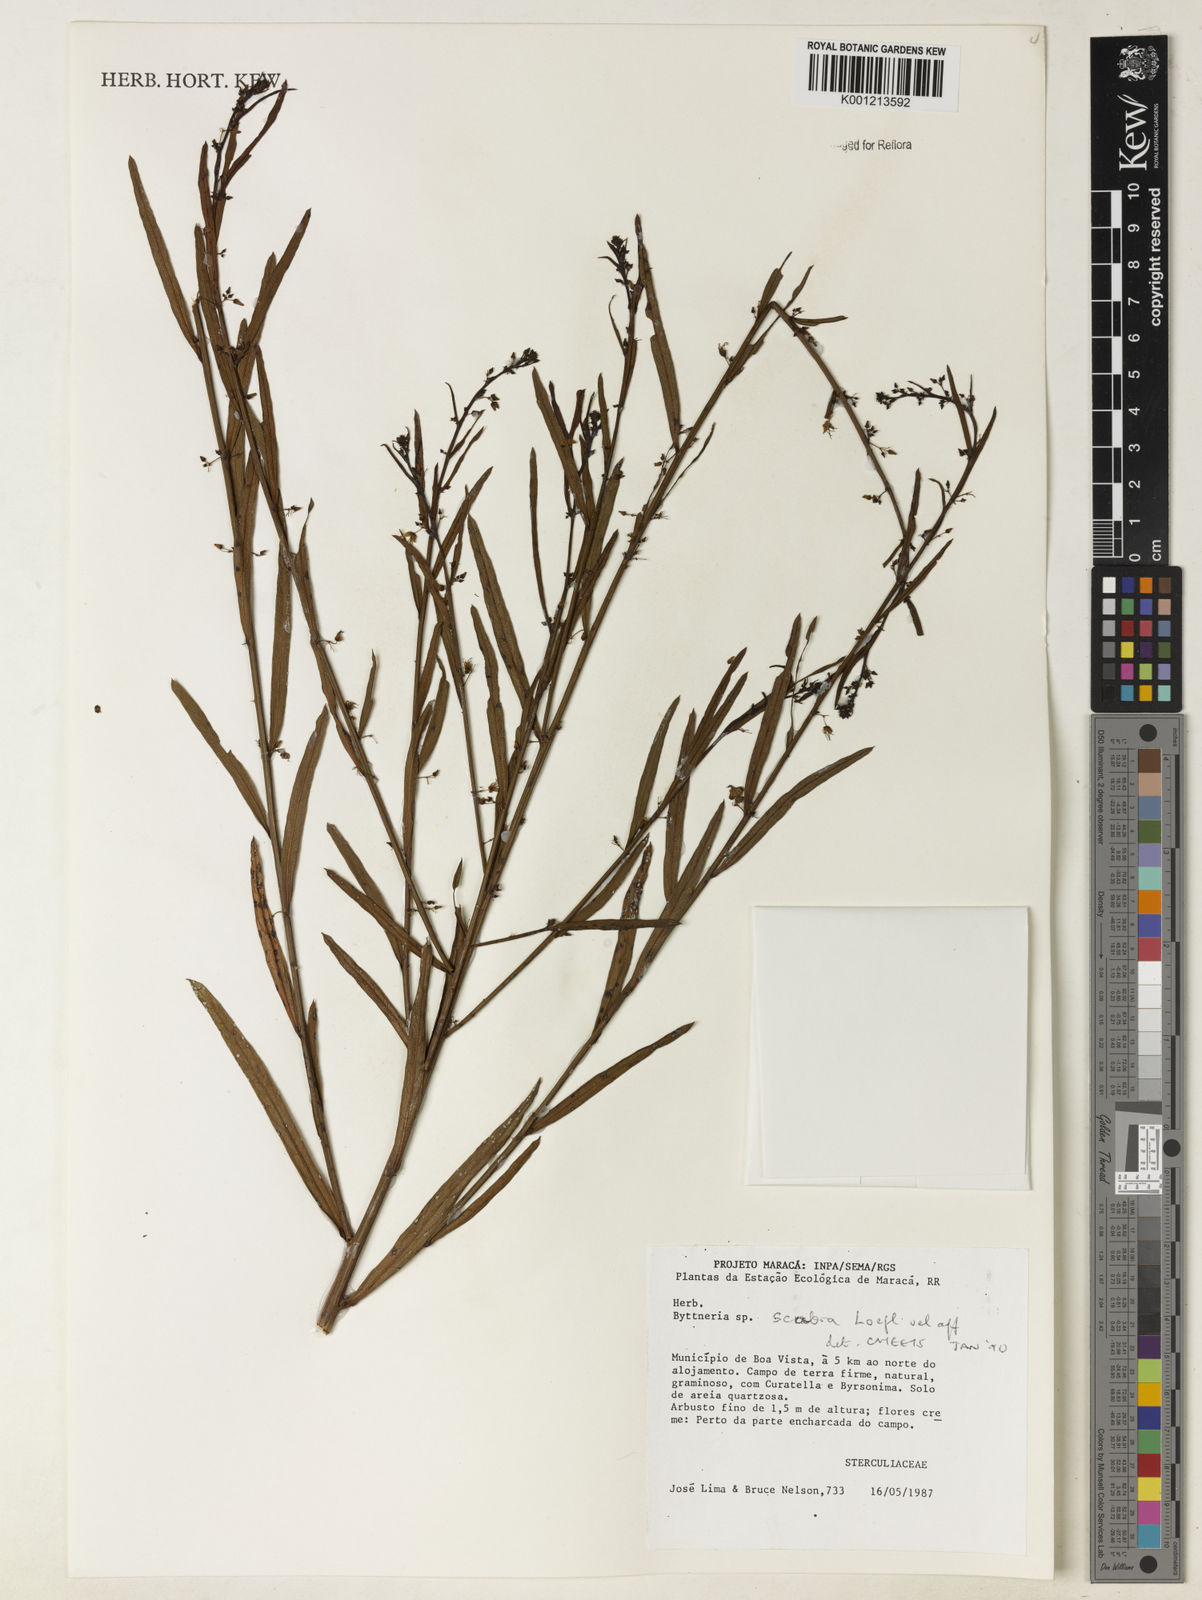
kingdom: Plantae
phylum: Tracheophyta
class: Magnoliopsida
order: Malvales
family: Malvaceae
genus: Byttneria
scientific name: Byttneria
